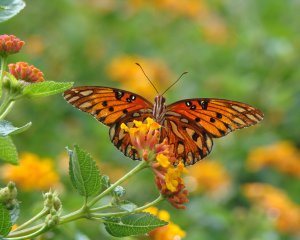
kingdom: Animalia
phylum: Arthropoda
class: Insecta
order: Lepidoptera
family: Nymphalidae
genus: Dione
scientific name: Dione vanillae
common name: Gulf Fritillary
